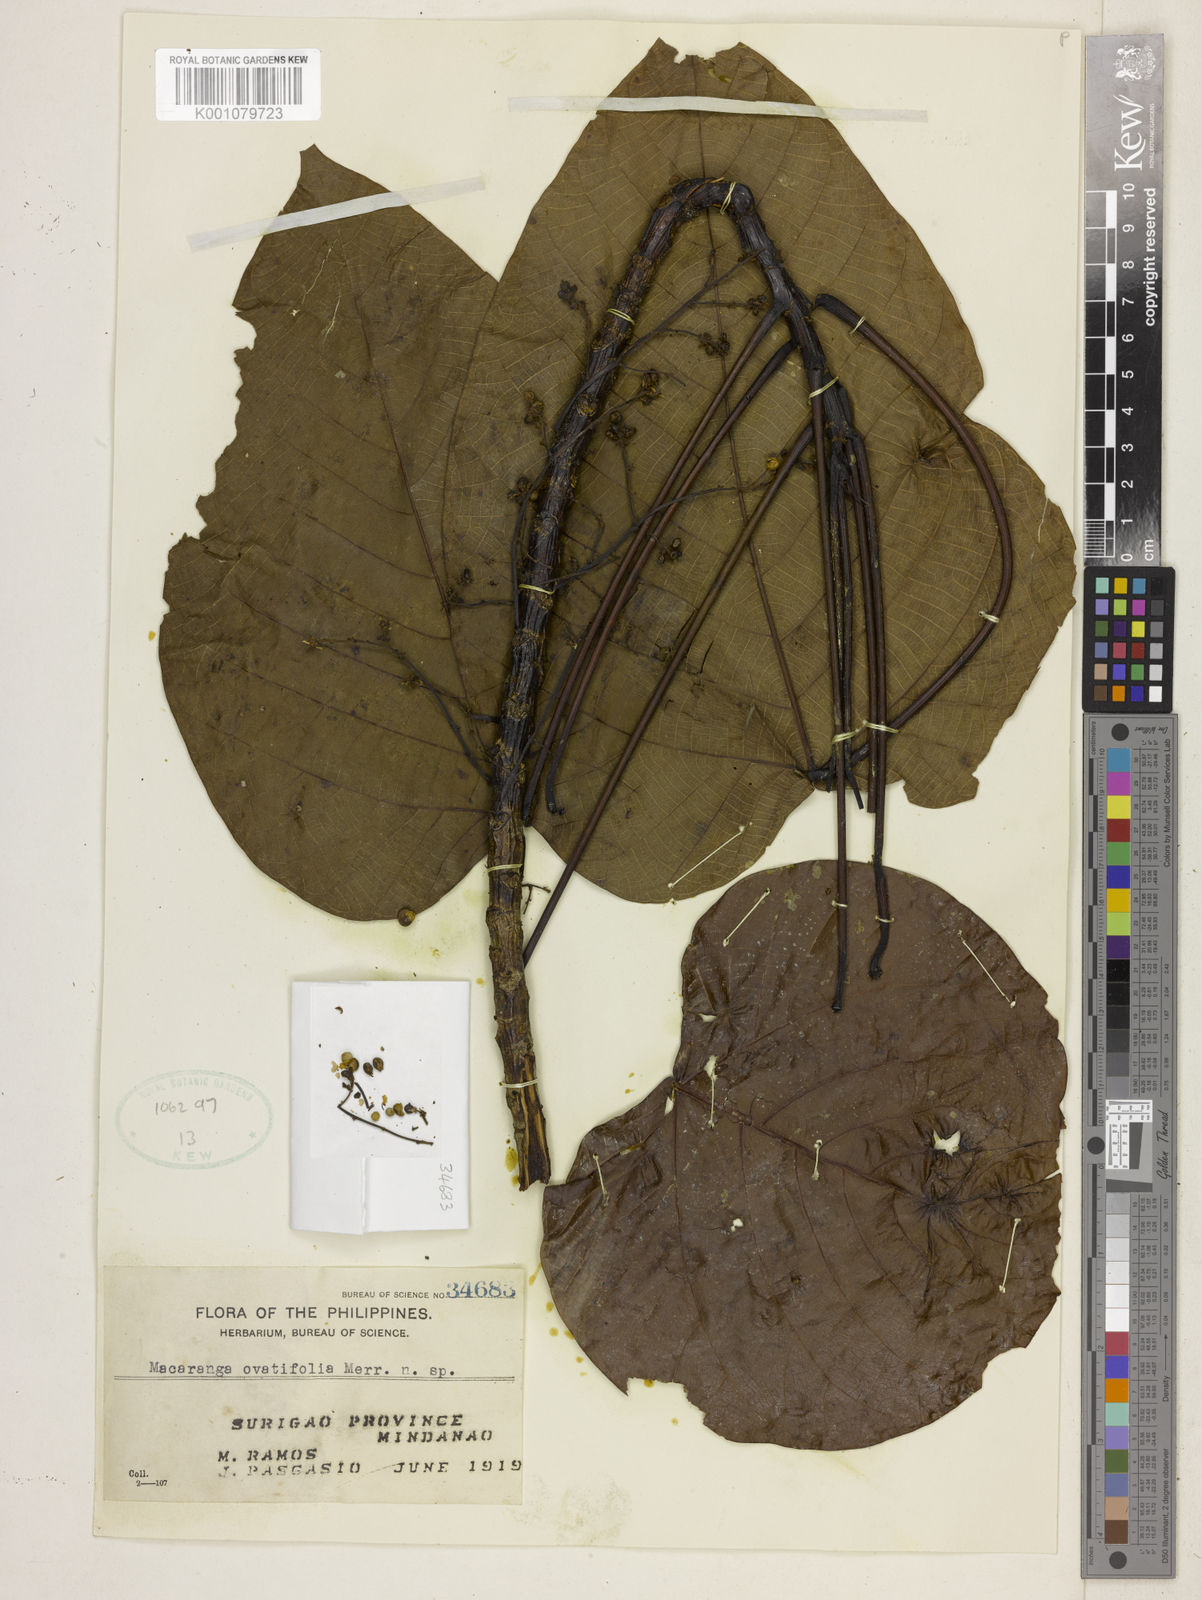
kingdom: Plantae
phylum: Tracheophyta
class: Magnoliopsida
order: Malpighiales
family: Euphorbiaceae
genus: Macaranga
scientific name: Macaranga ovatifolia
